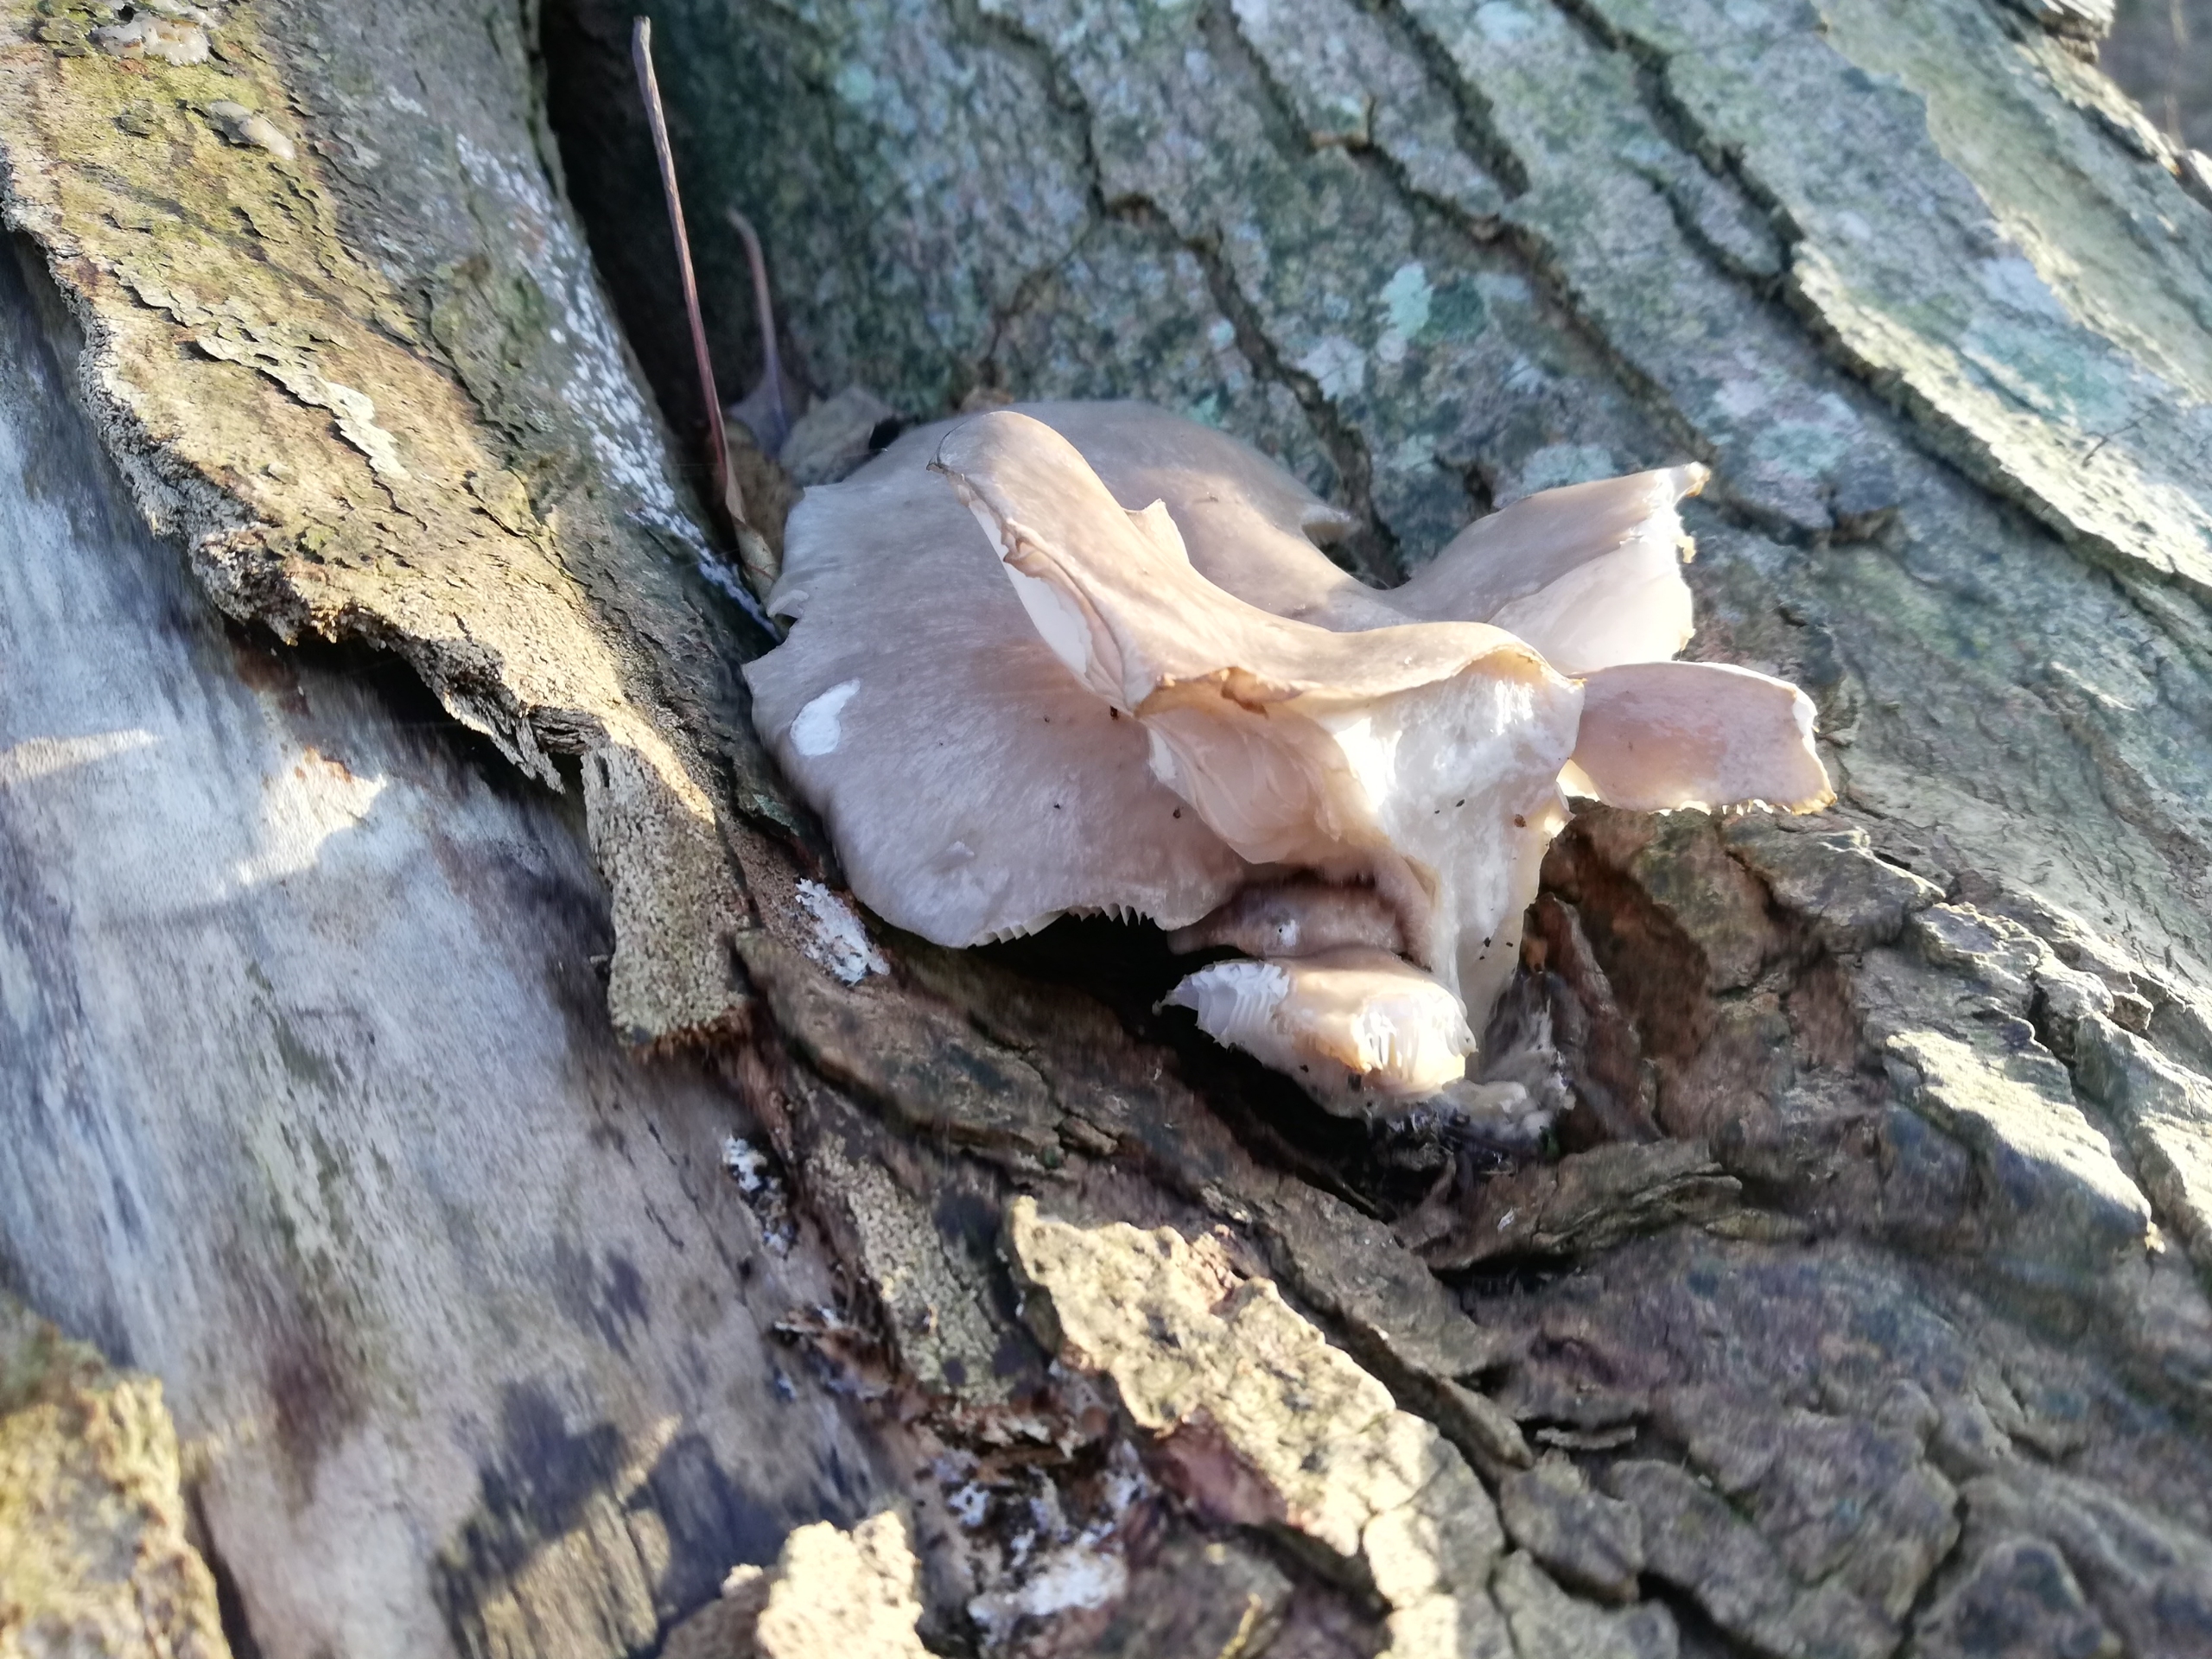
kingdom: Fungi
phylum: Basidiomycota
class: Agaricomycetes
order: Agaricales
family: Pleurotaceae
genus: Pleurotus
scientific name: Pleurotus ostreatus
